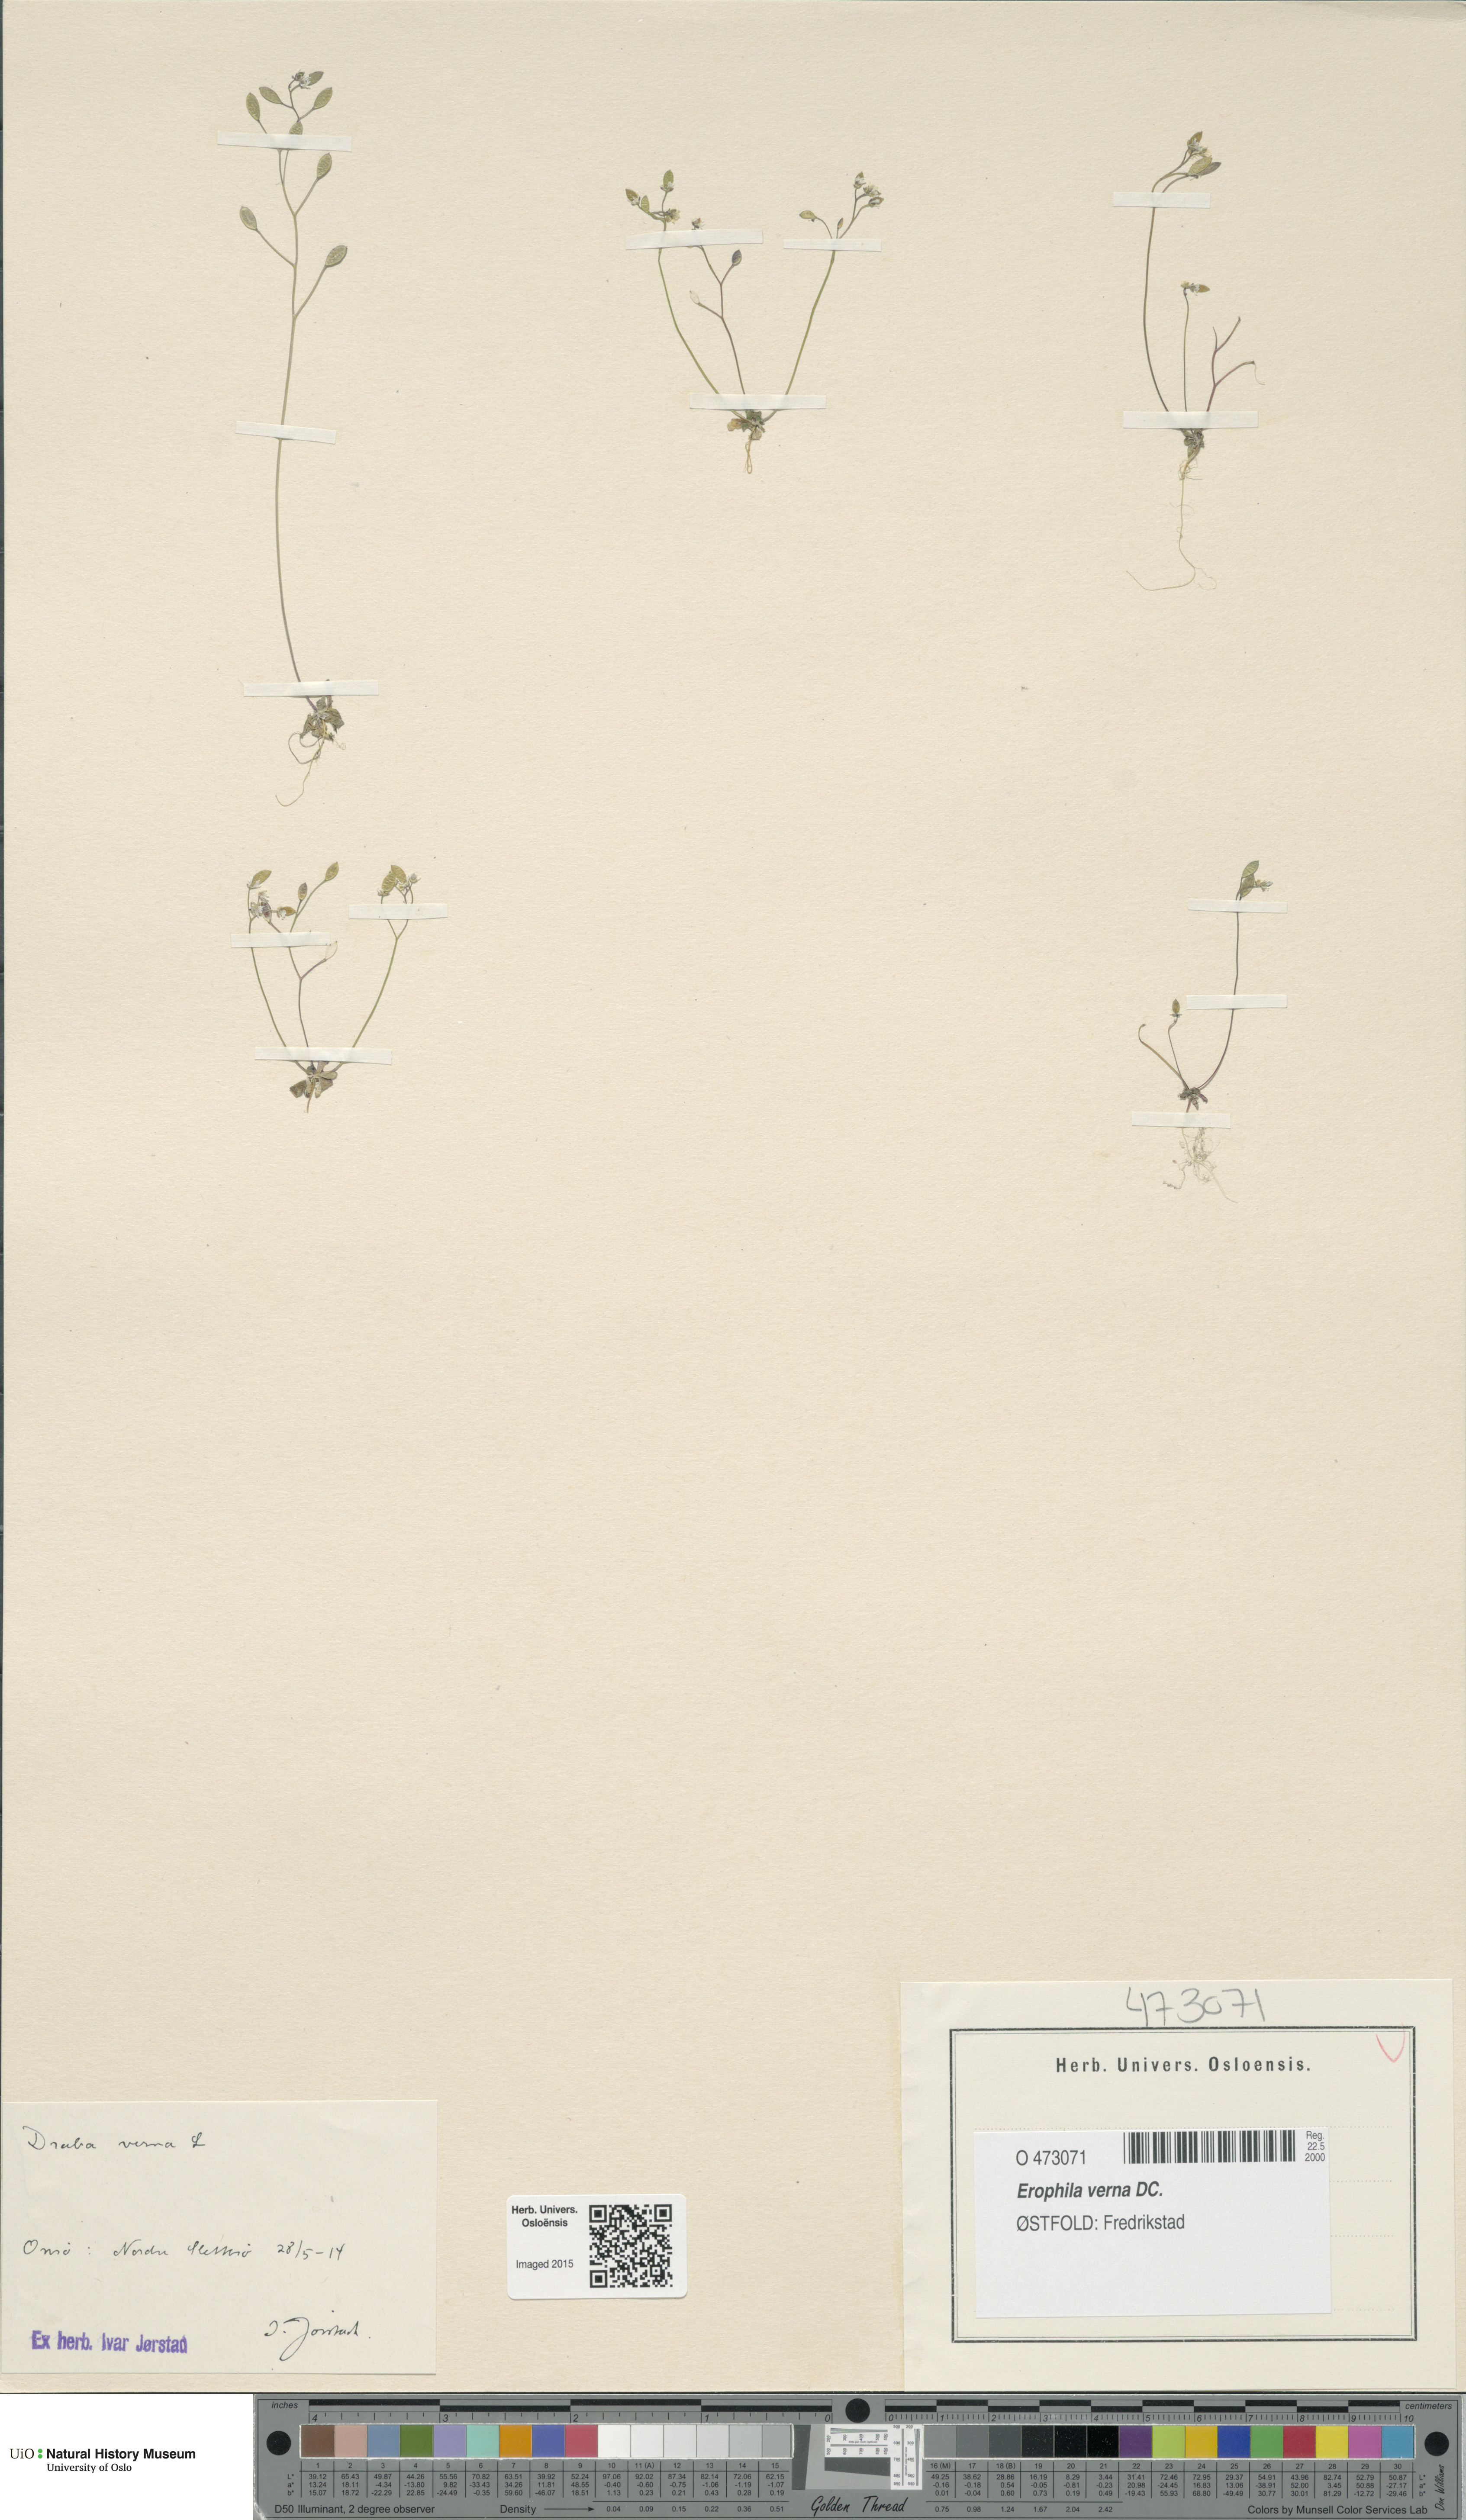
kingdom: Plantae
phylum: Tracheophyta
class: Magnoliopsida
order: Brassicales
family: Brassicaceae
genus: Draba
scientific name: Draba verna
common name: Spring draba
